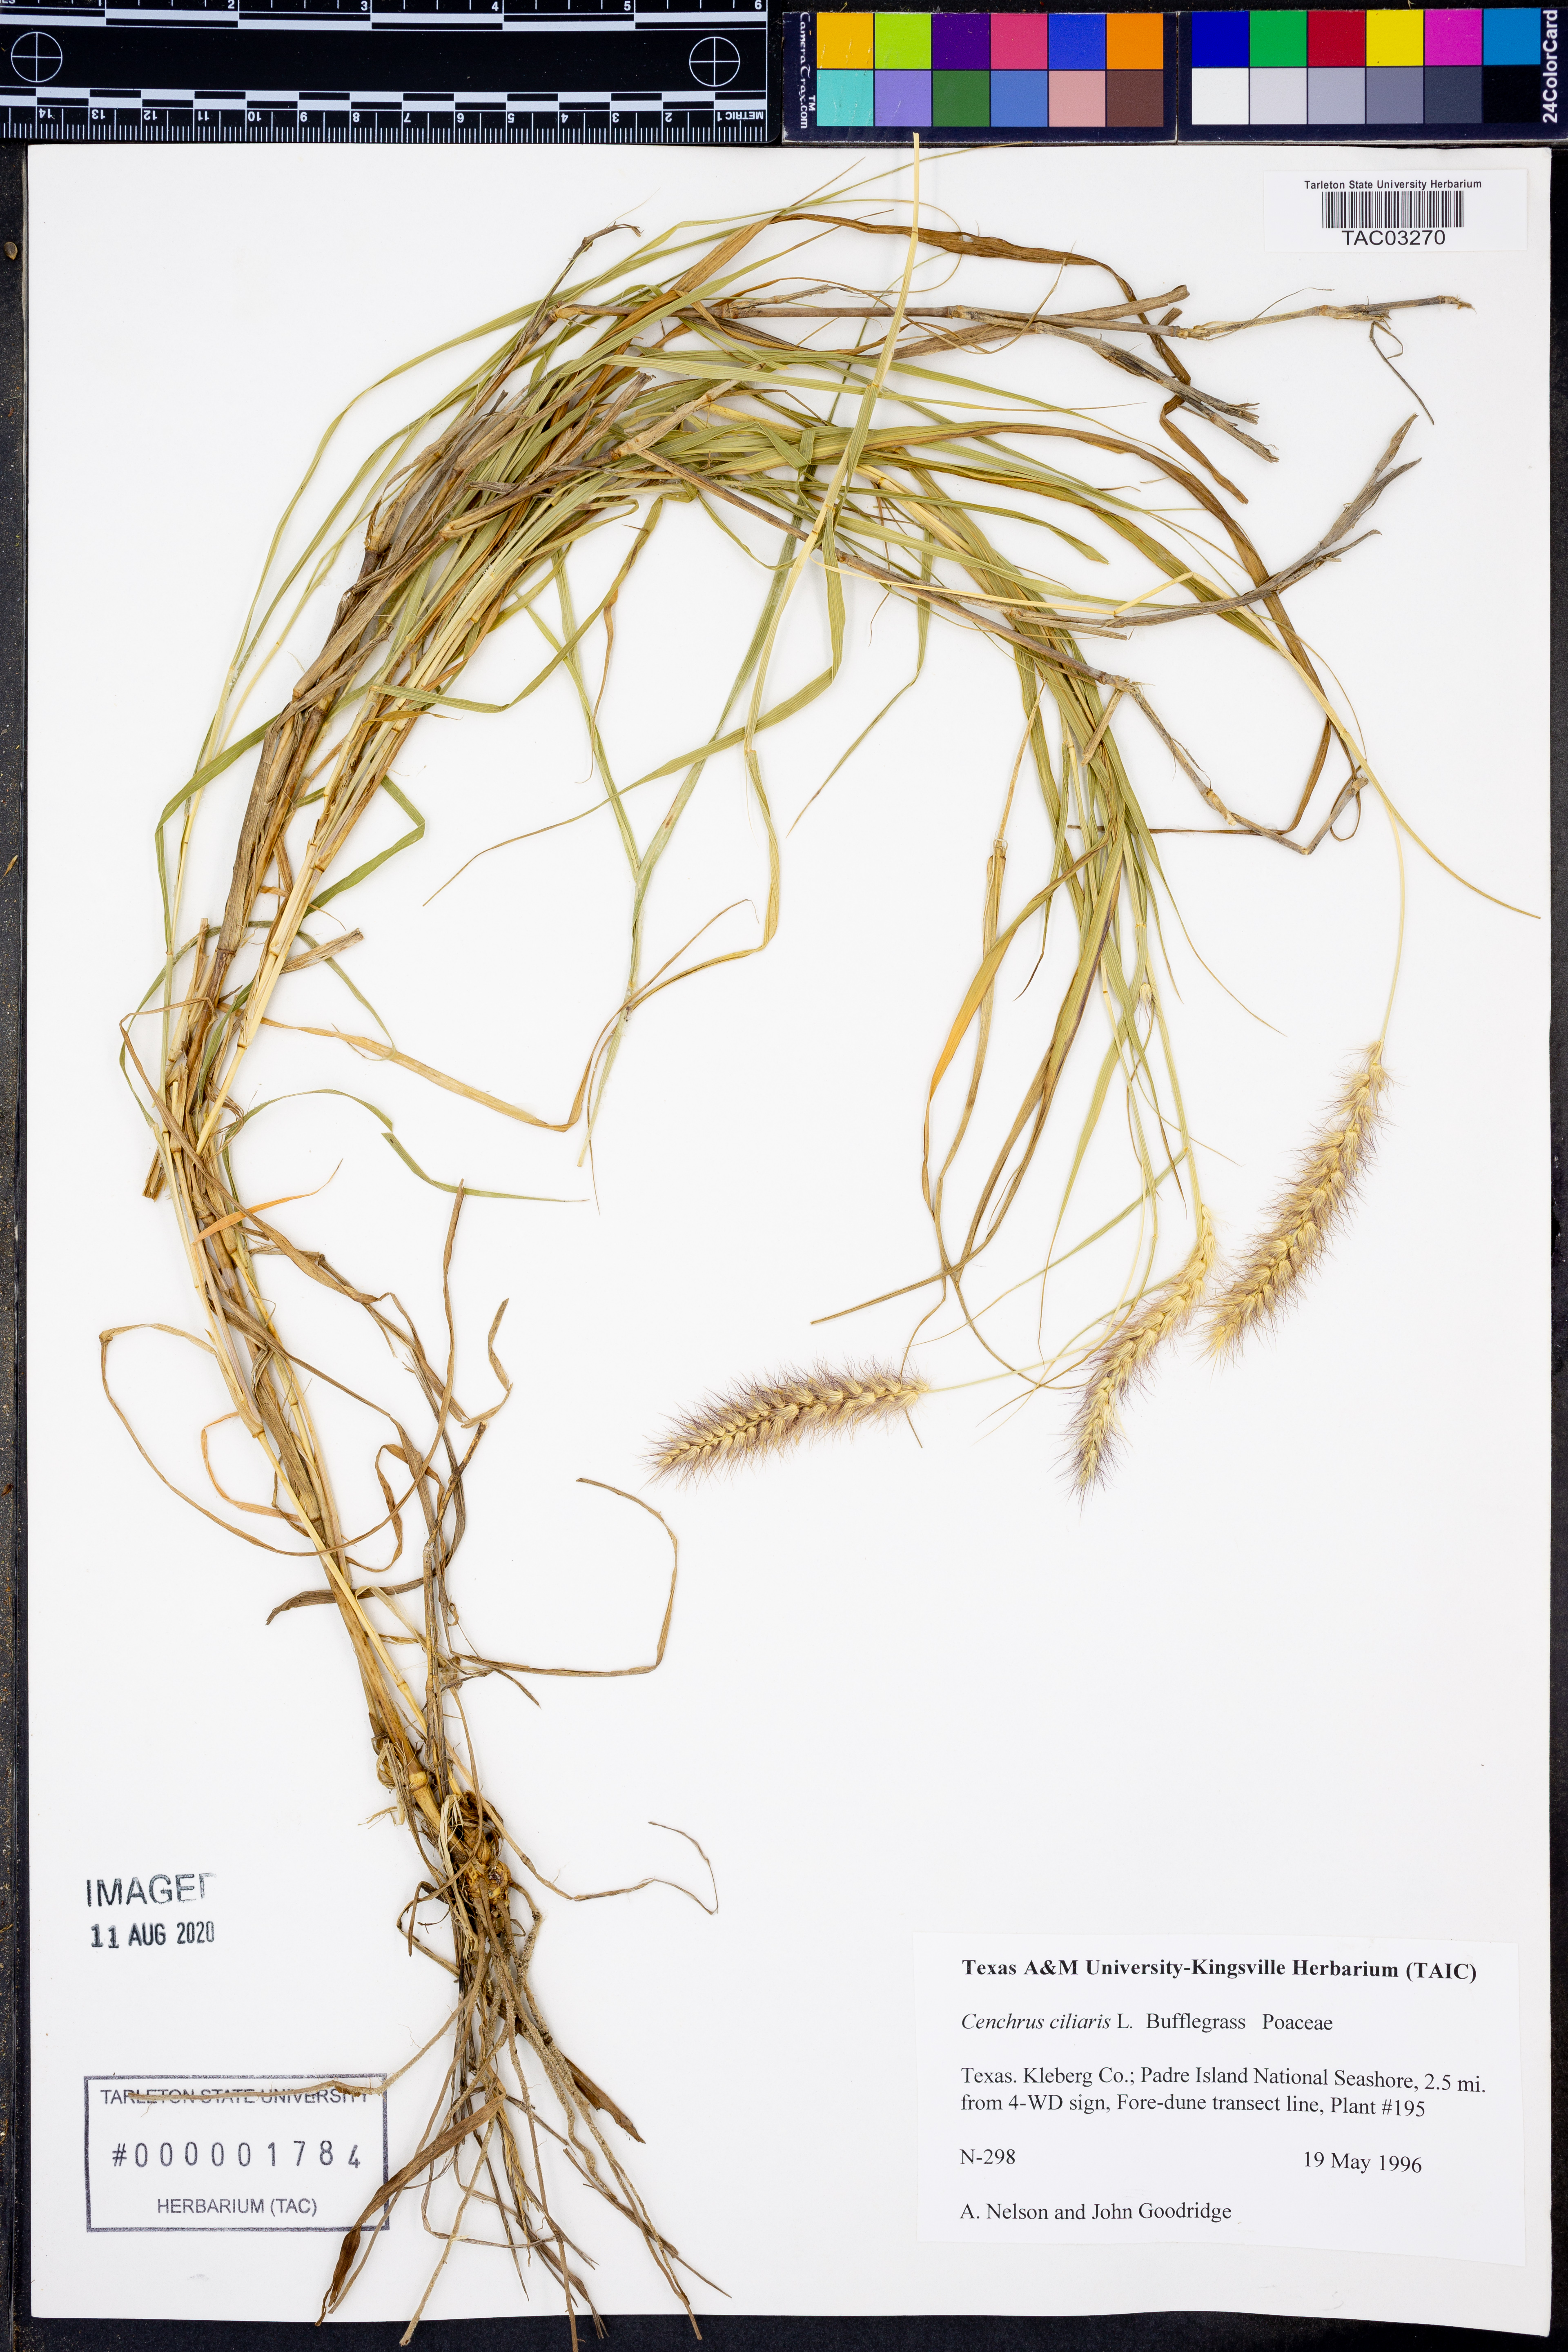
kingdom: Plantae
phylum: Tracheophyta
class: Liliopsida
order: Poales
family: Poaceae
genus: Cenchrus
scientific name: Cenchrus ciliaris
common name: Buffelgrass
